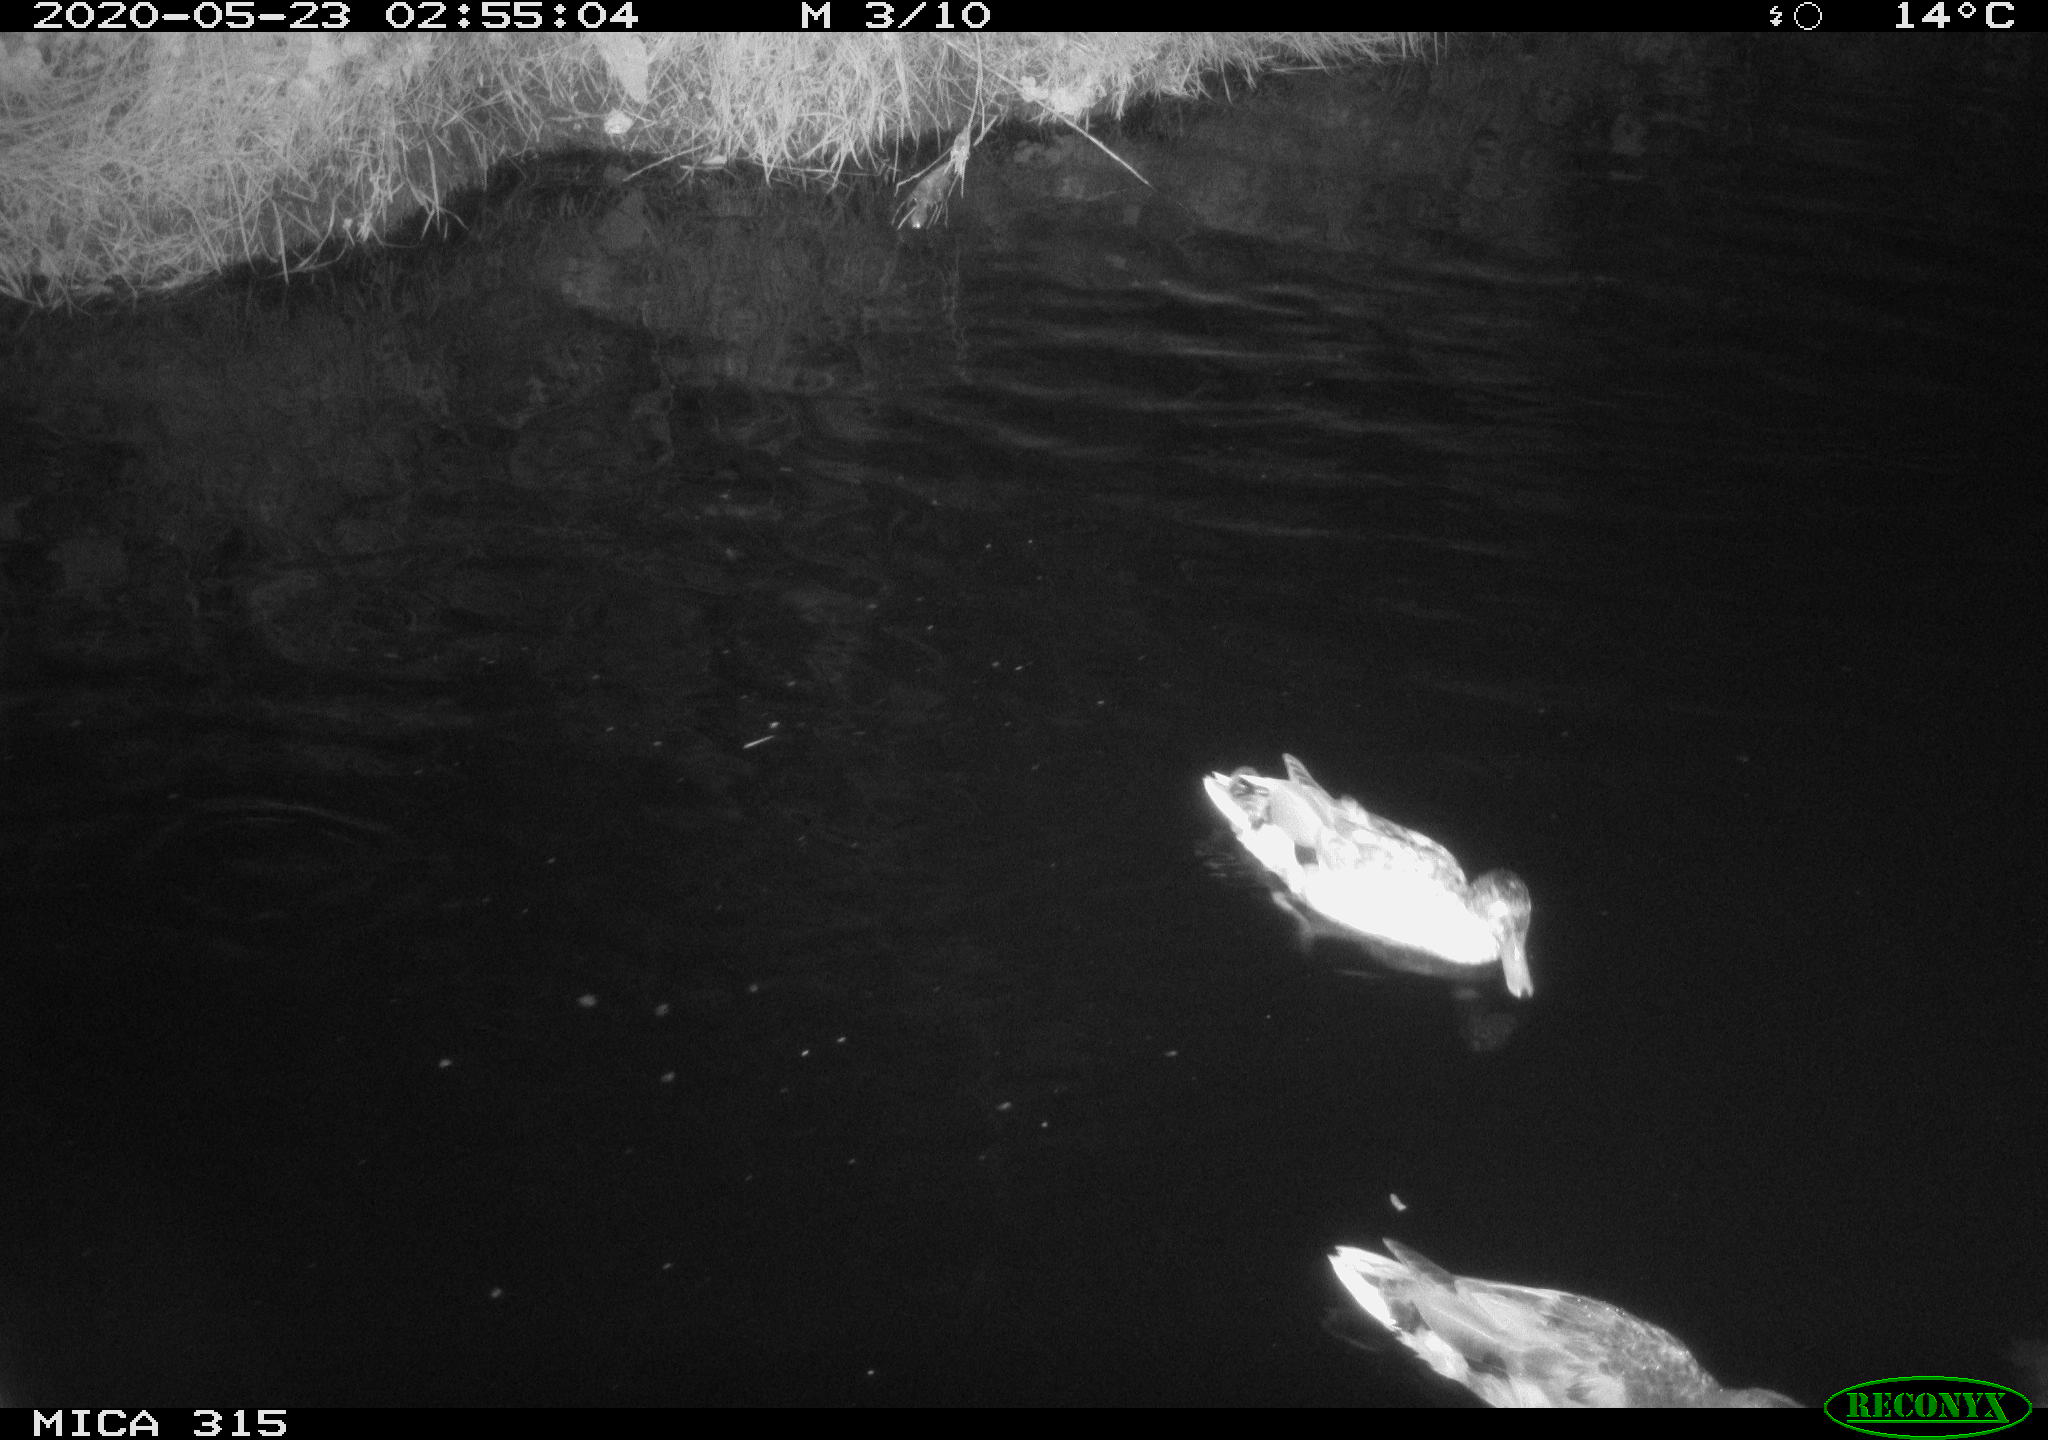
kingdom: Animalia
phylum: Chordata
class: Aves
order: Anseriformes
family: Anatidae
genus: Anas
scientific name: Anas platyrhynchos
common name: Mallard
